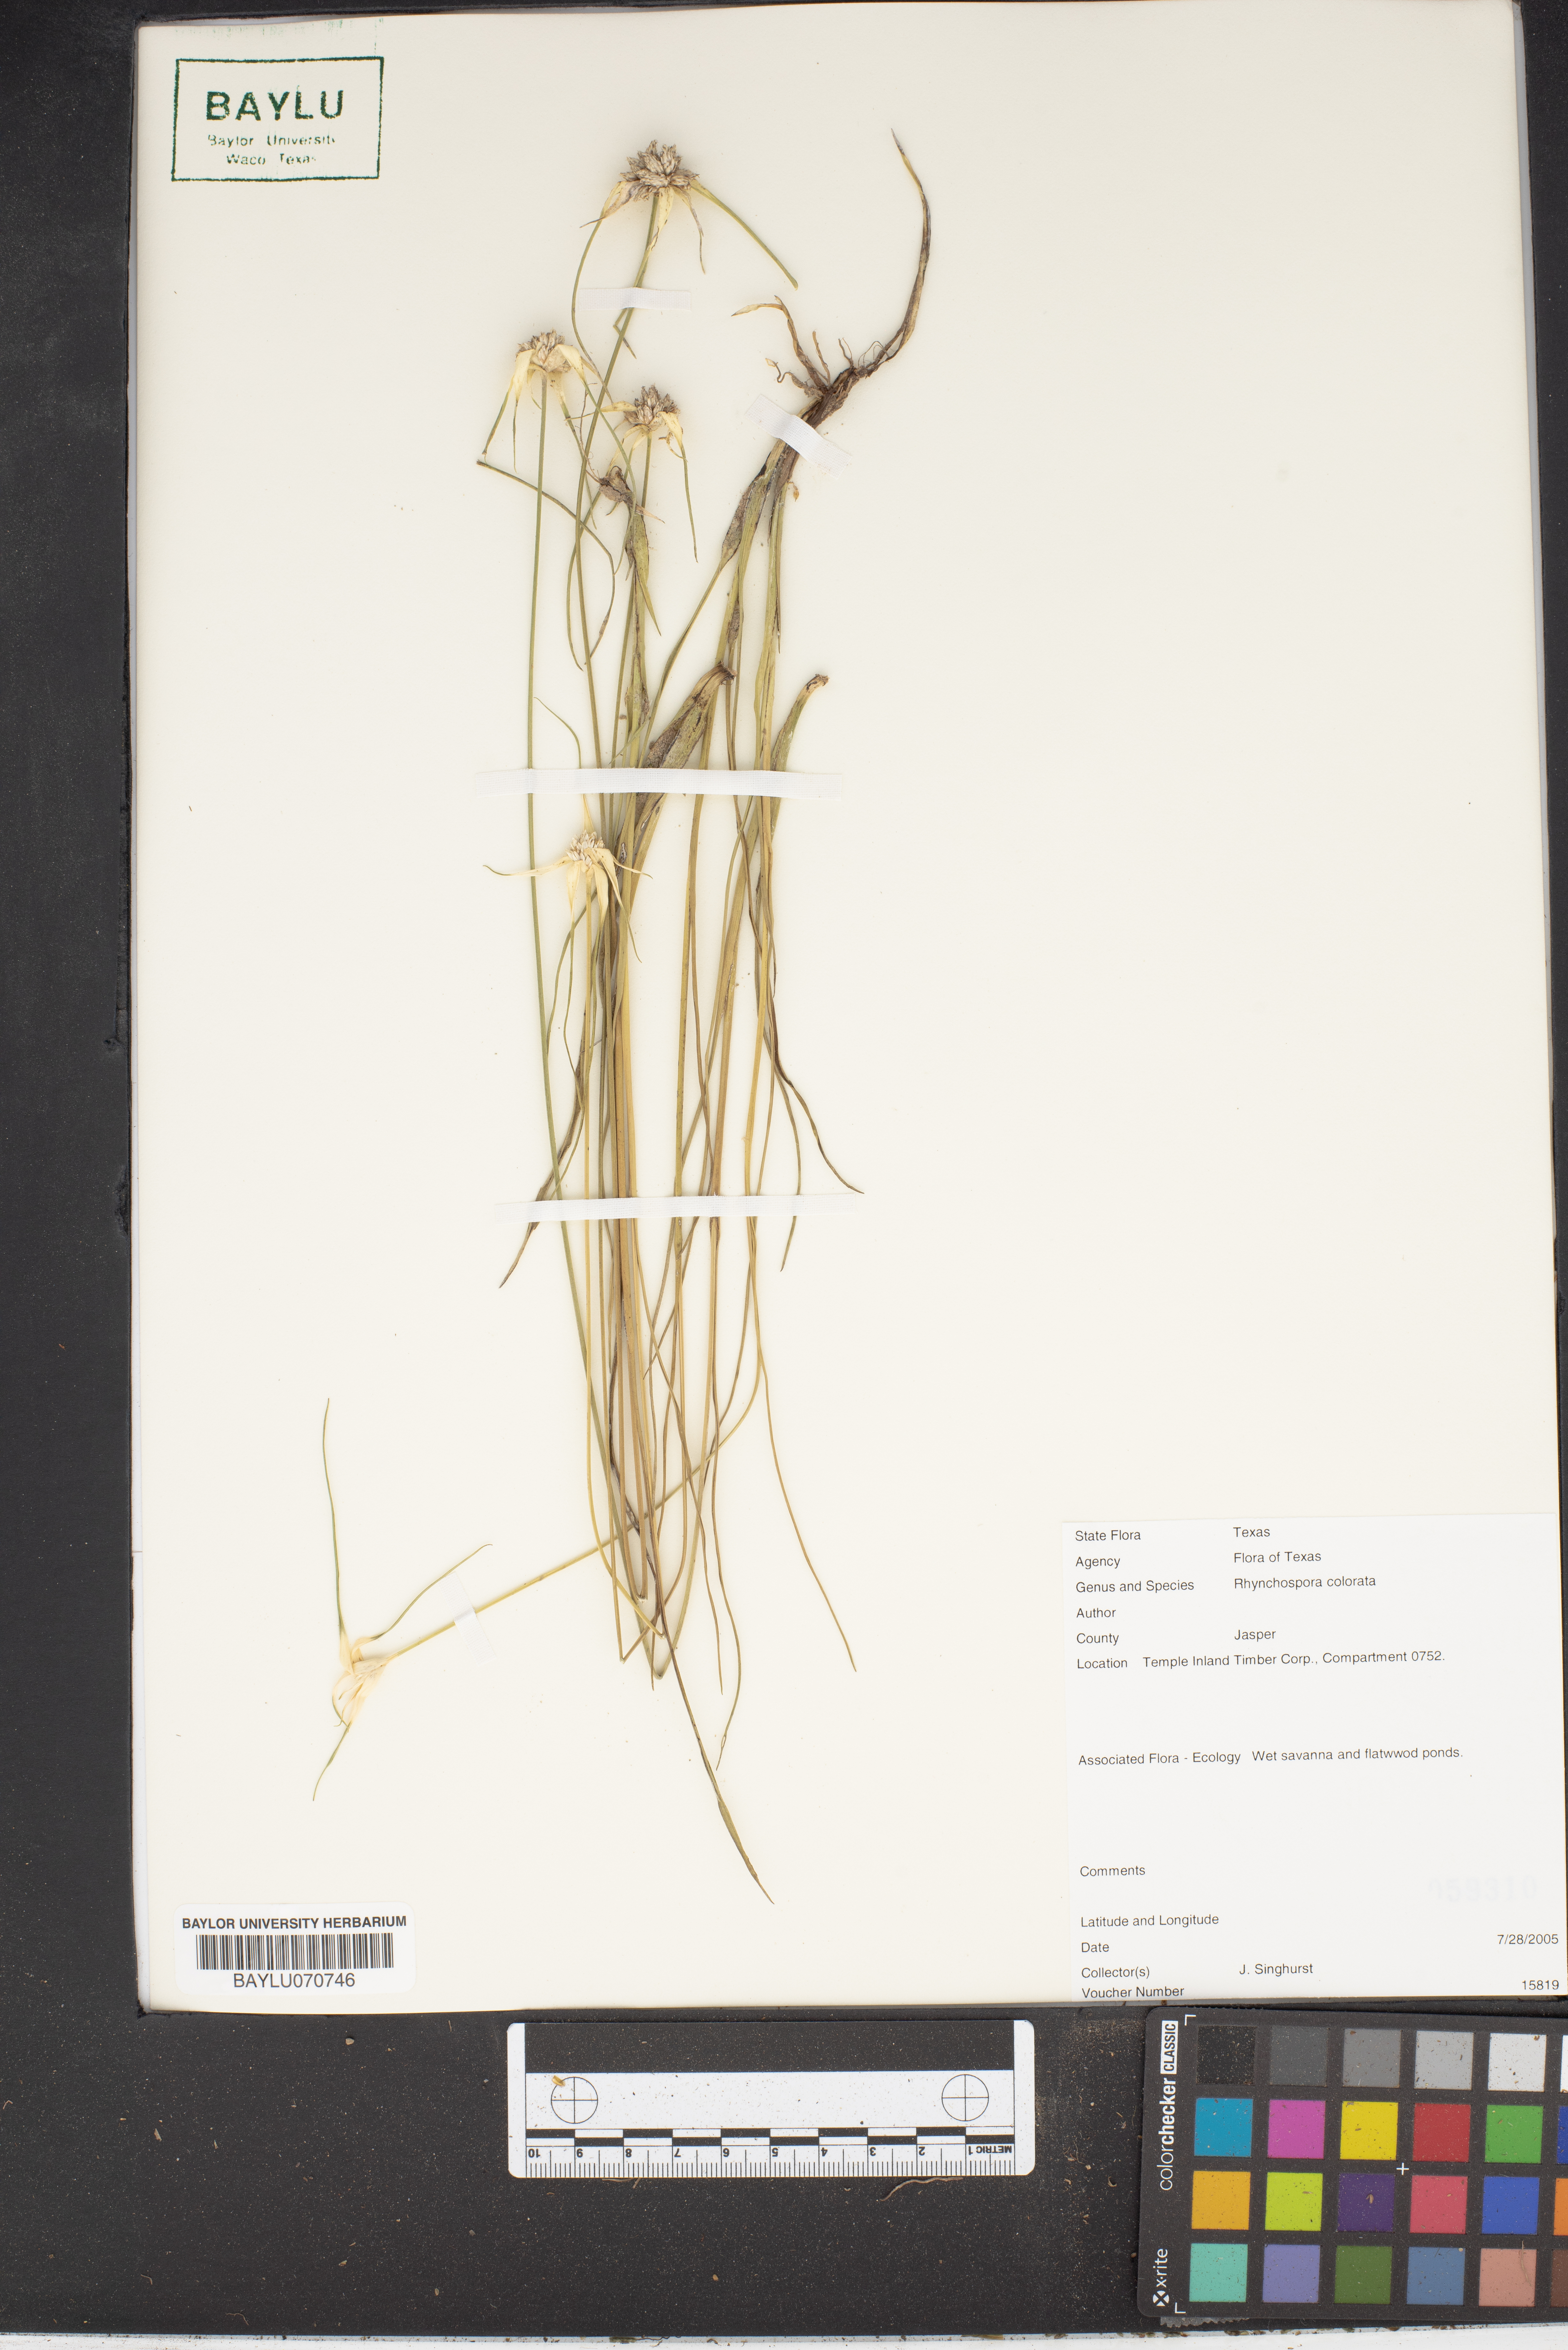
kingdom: Plantae
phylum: Tracheophyta
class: Liliopsida
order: Poales
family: Cyperaceae
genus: Rhynchospora
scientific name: Rhynchospora colorata
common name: Star sedge
